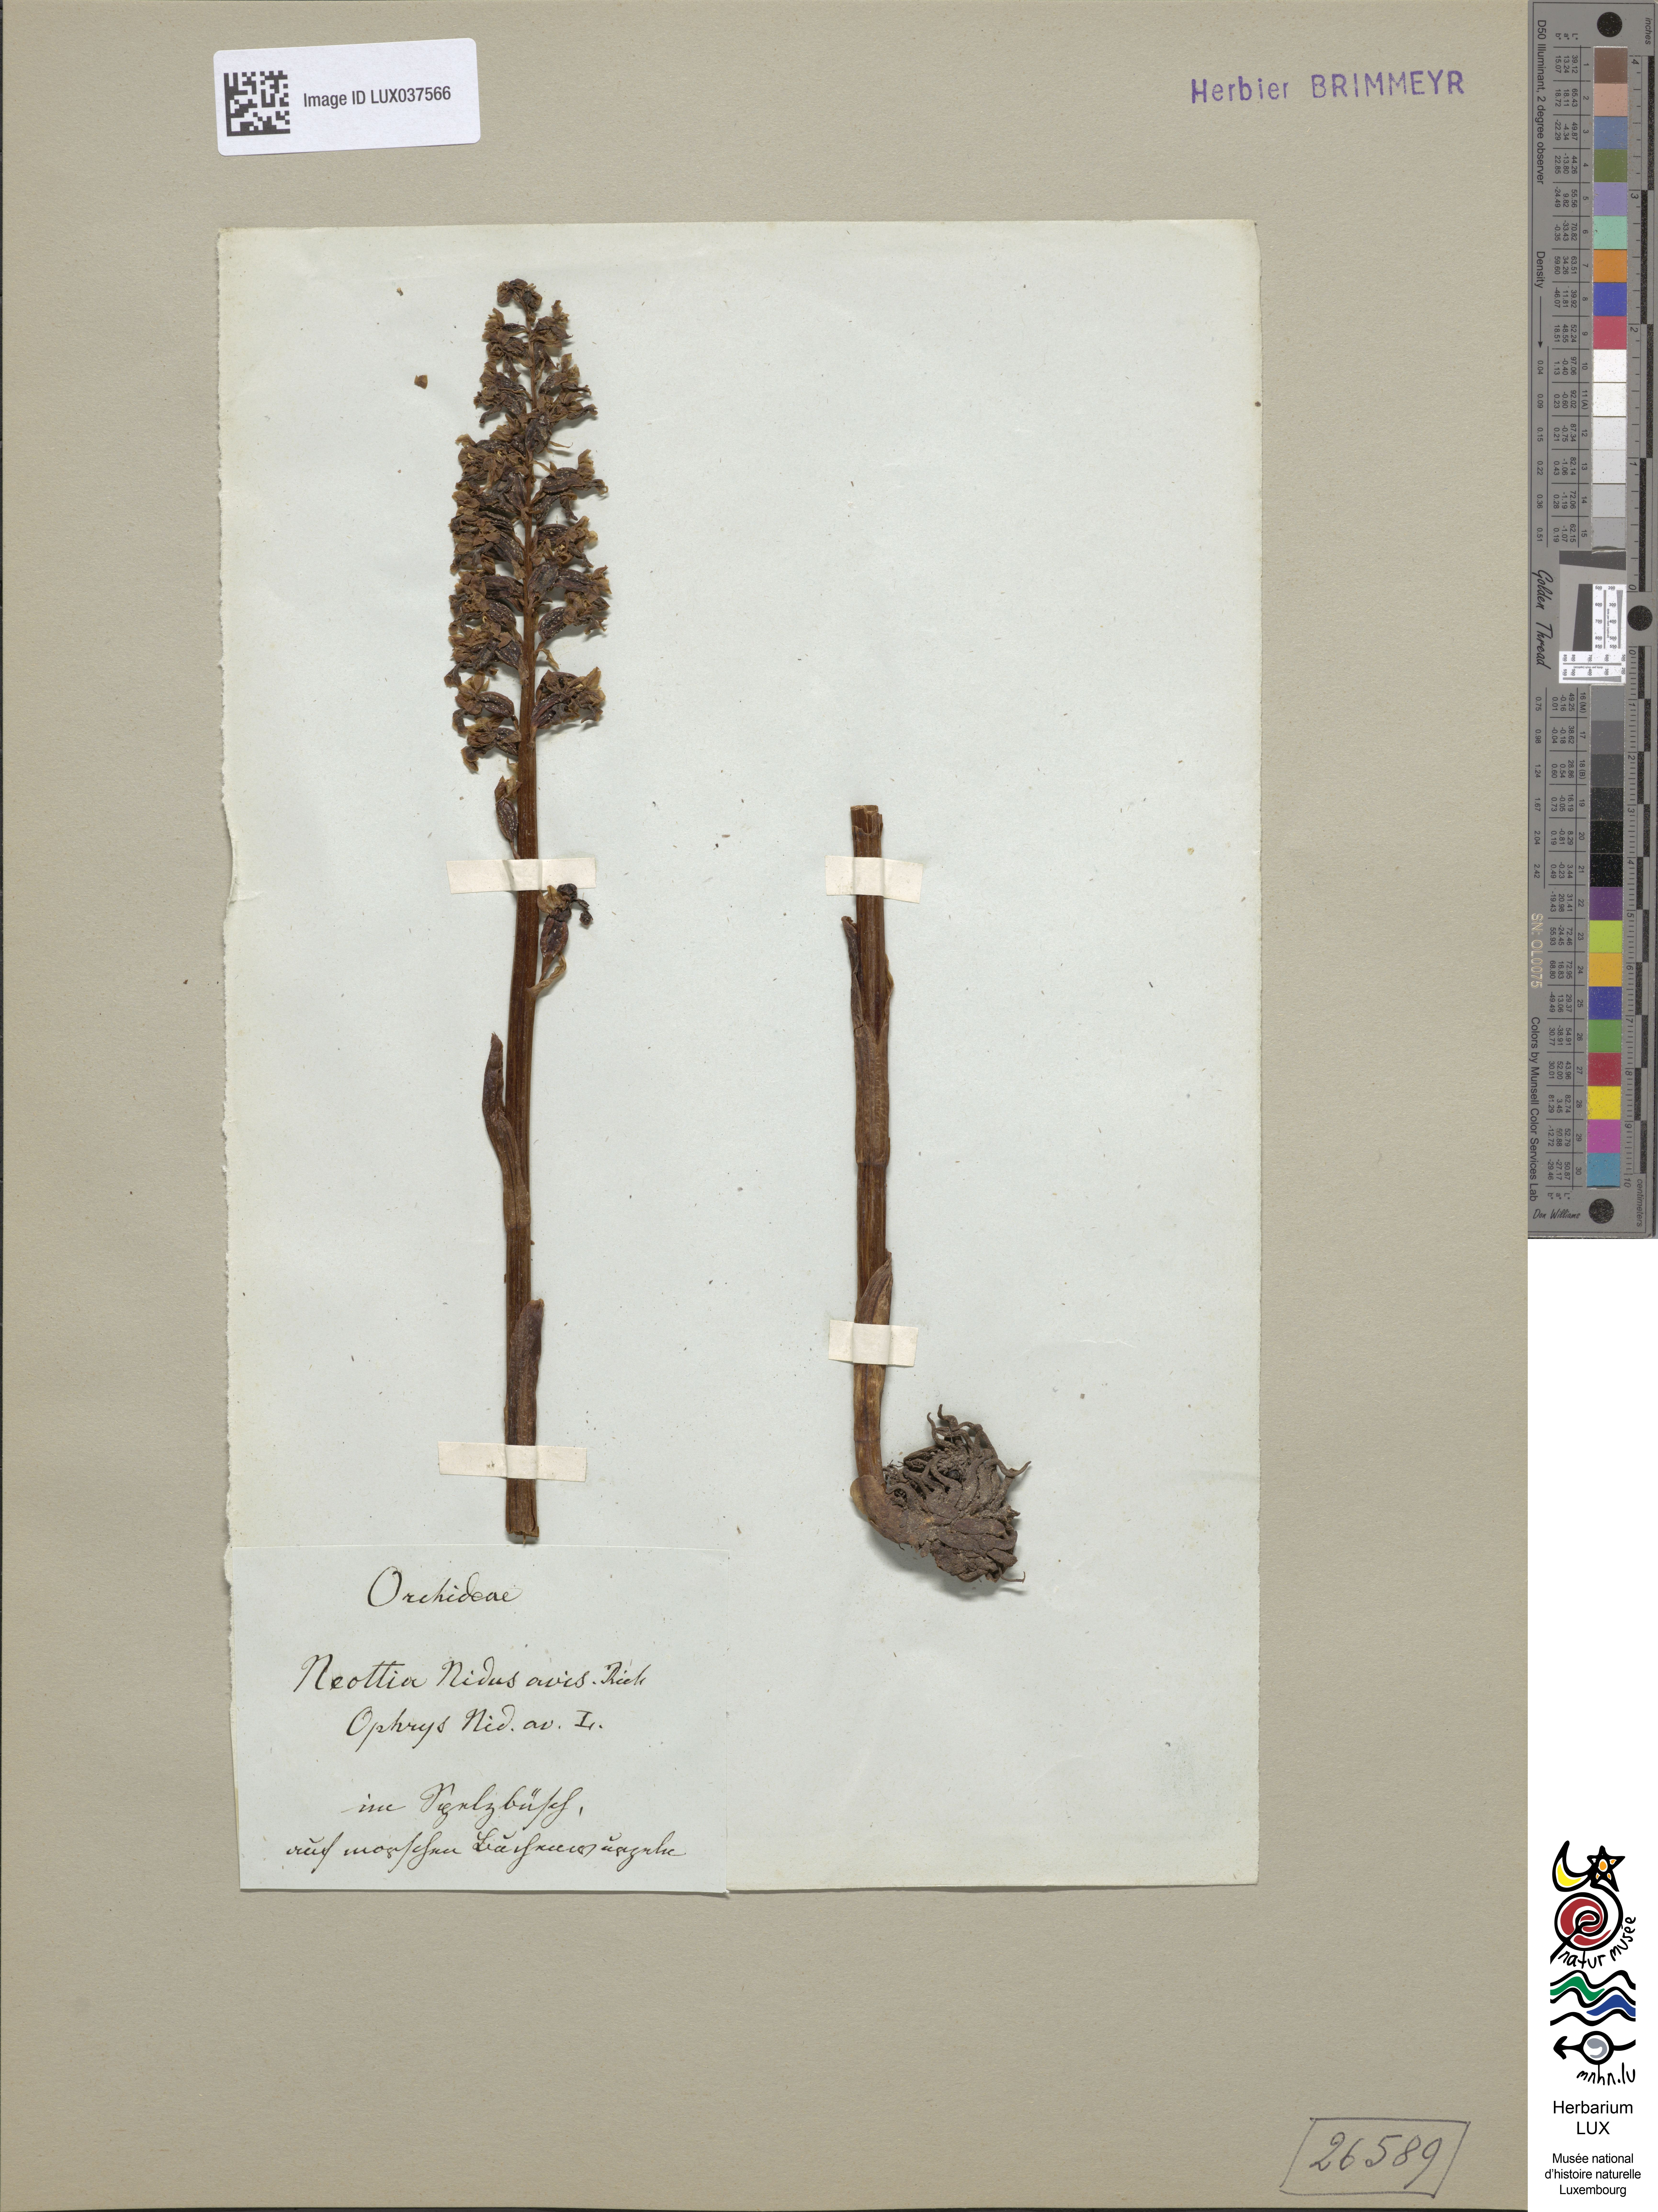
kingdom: Plantae
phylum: Tracheophyta
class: Liliopsida
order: Asparagales
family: Orchidaceae
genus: Neottia
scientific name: Neottia nidus-avis
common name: Bird's-nest orchid
